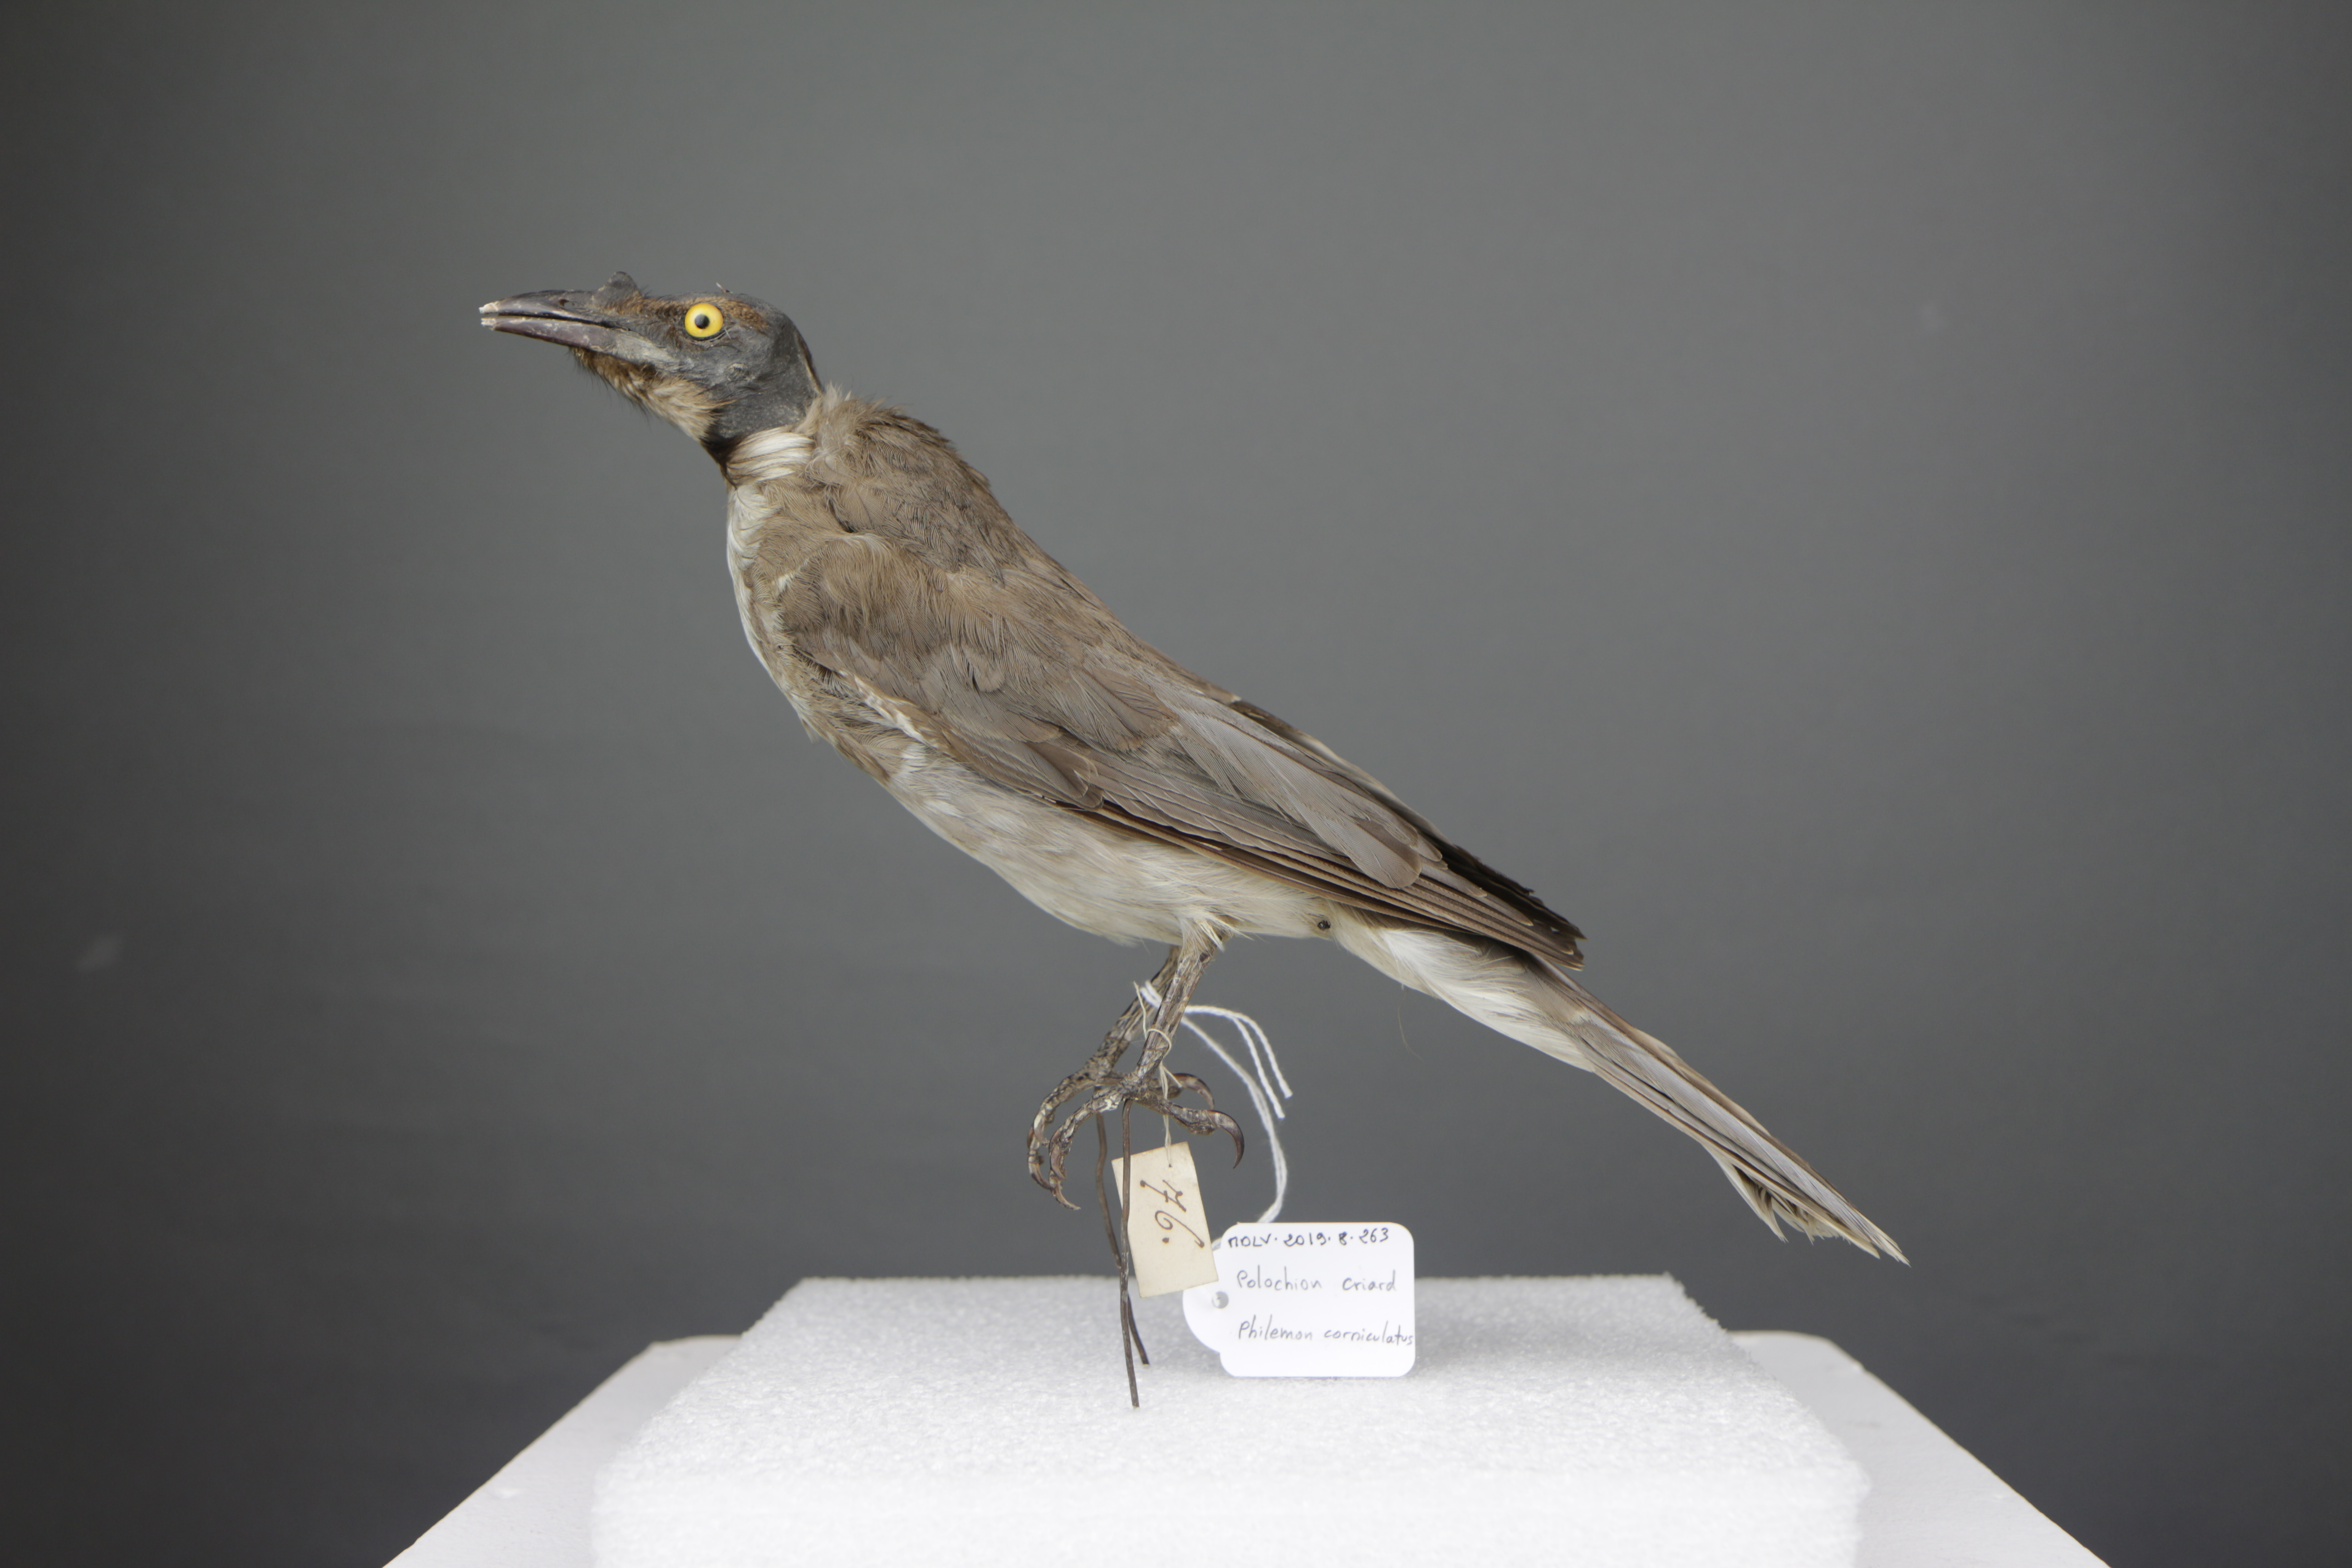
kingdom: Animalia
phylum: Chordata
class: Aves
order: Passeriformes
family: Meliphagidae
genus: Philemon
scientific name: Philemon corniculatus
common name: Noisy friarbird
